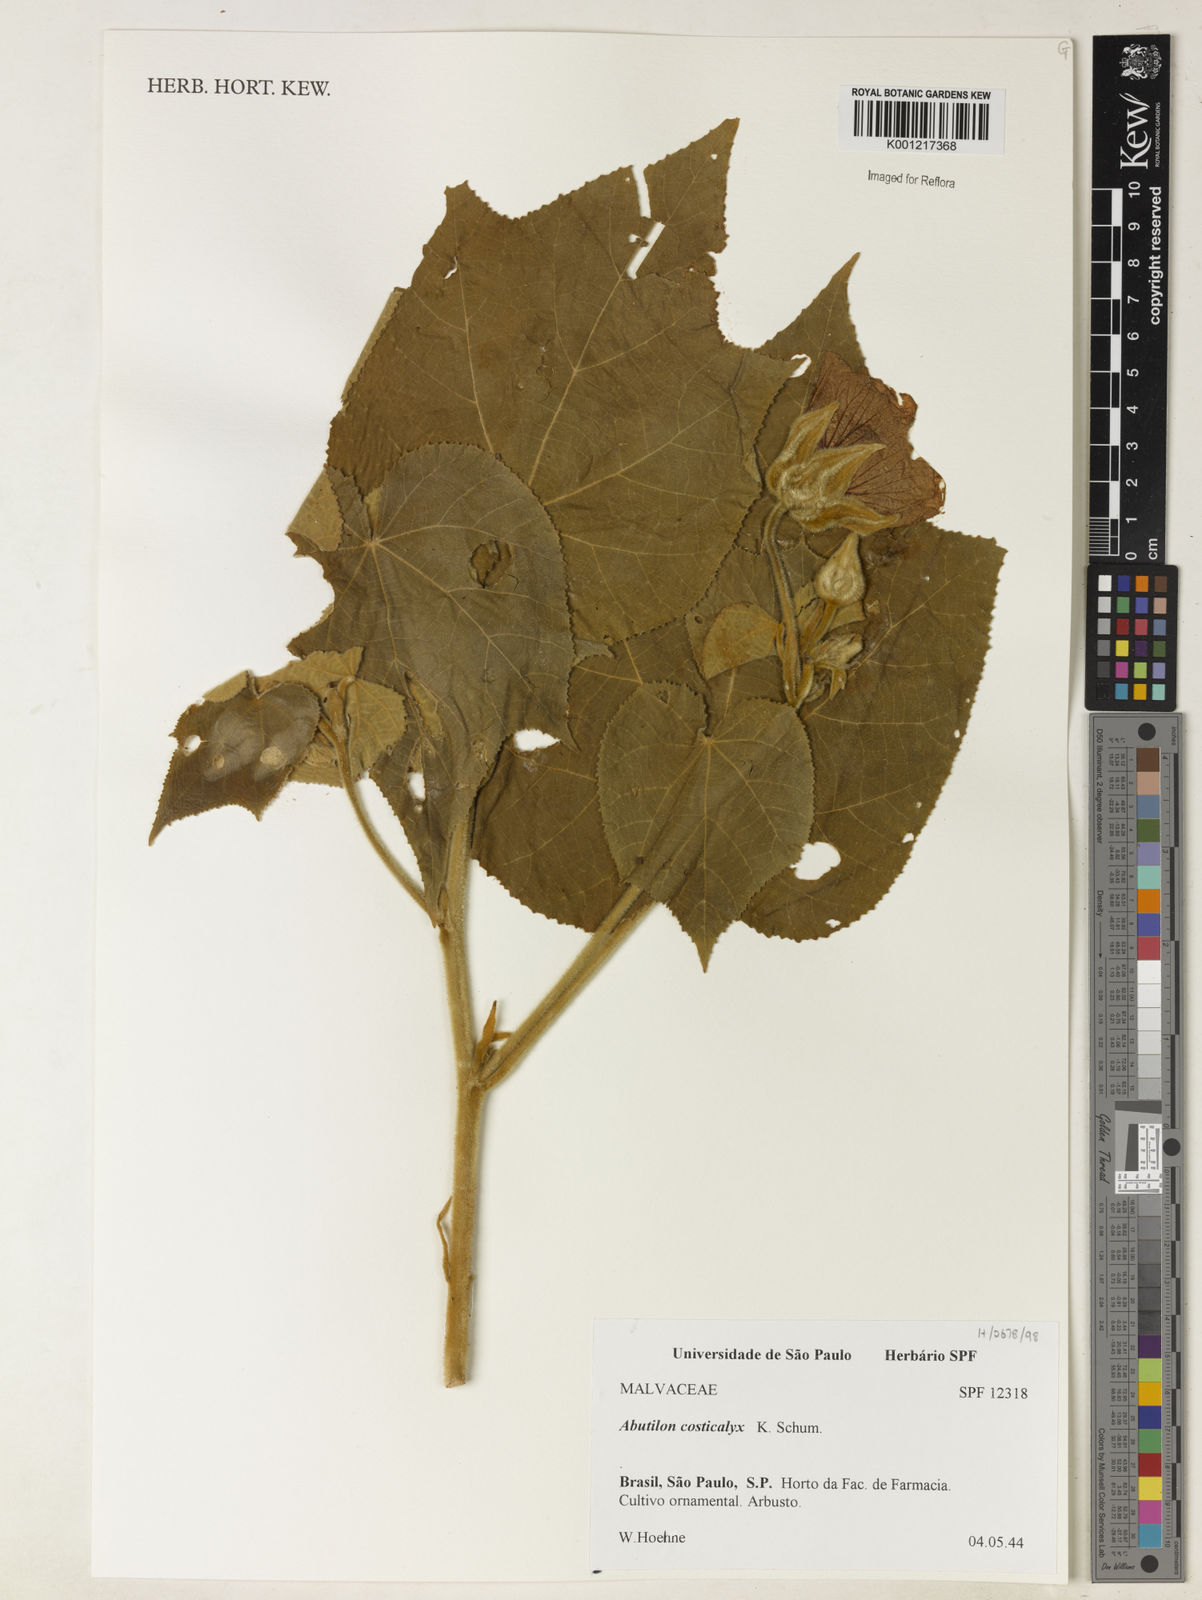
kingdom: Plantae
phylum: Tracheophyta
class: Magnoliopsida
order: Malvales
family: Malvaceae
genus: Callianthe
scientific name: Callianthe costicalyx
